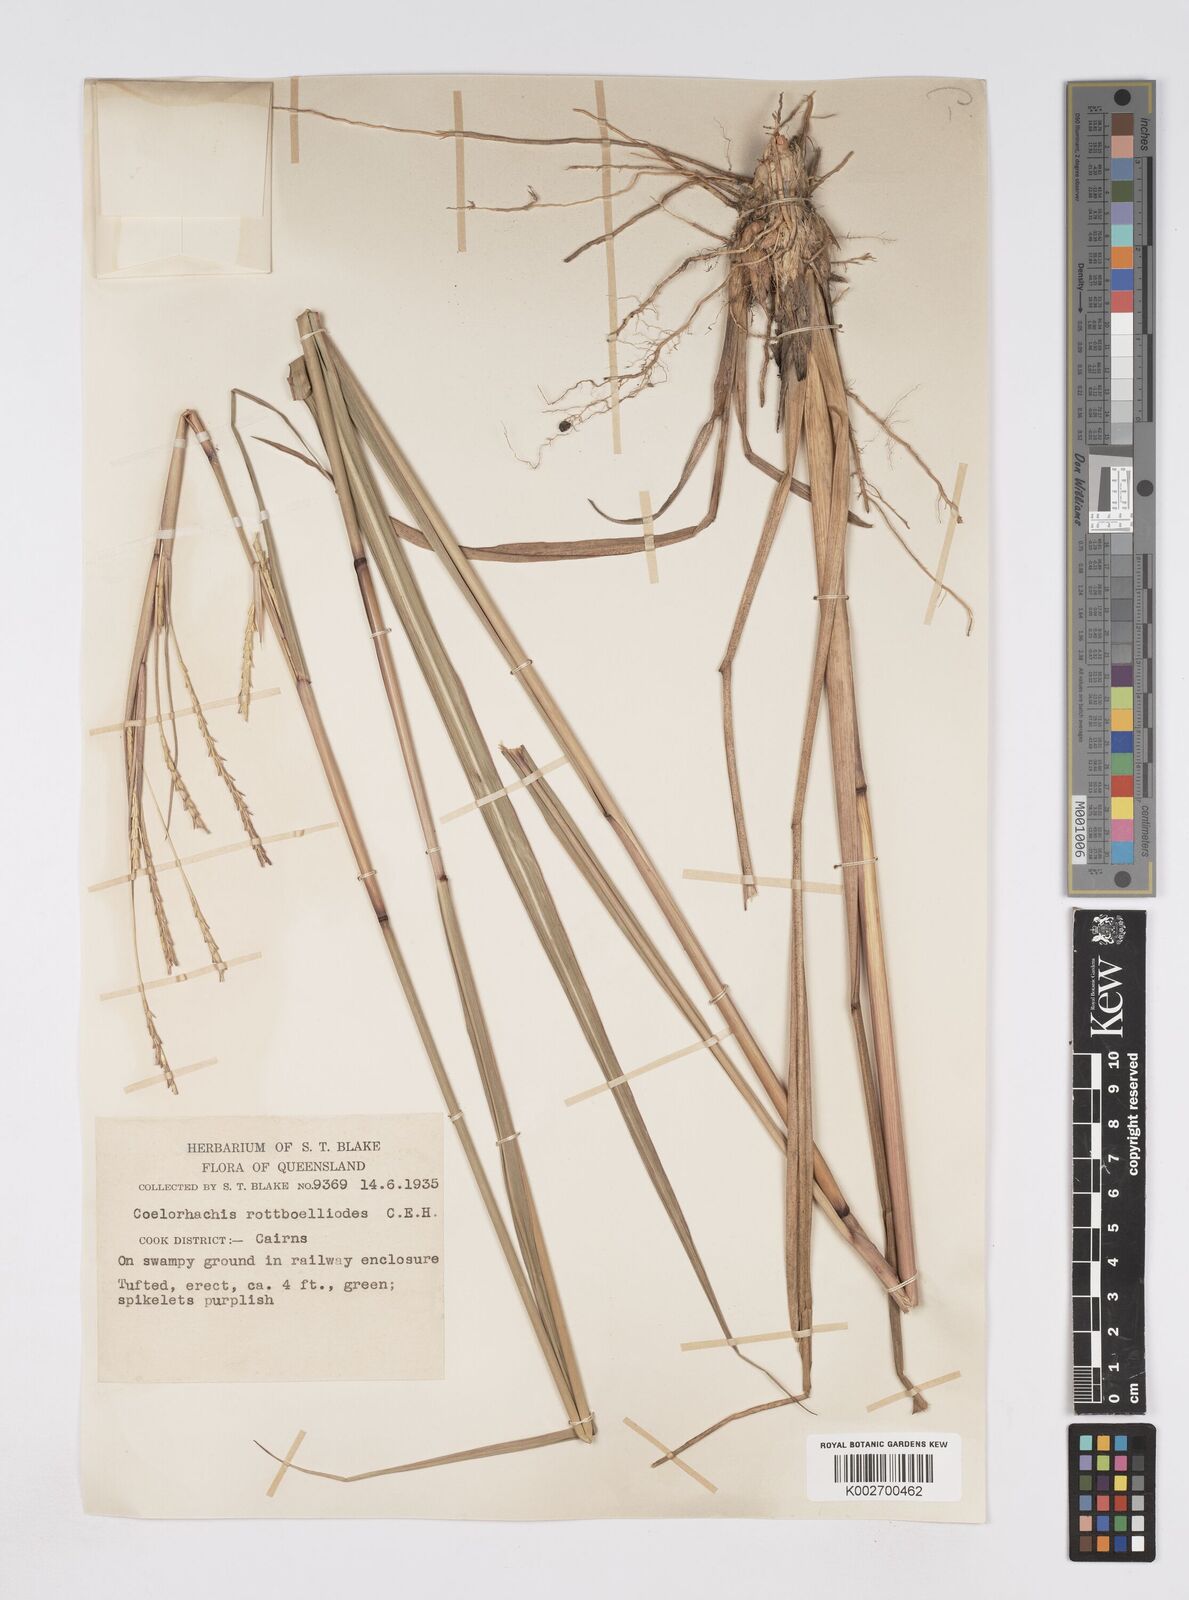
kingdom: Plantae
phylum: Tracheophyta
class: Liliopsida
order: Poales
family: Poaceae
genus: Rottboellia
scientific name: Rottboellia rottboellioides
